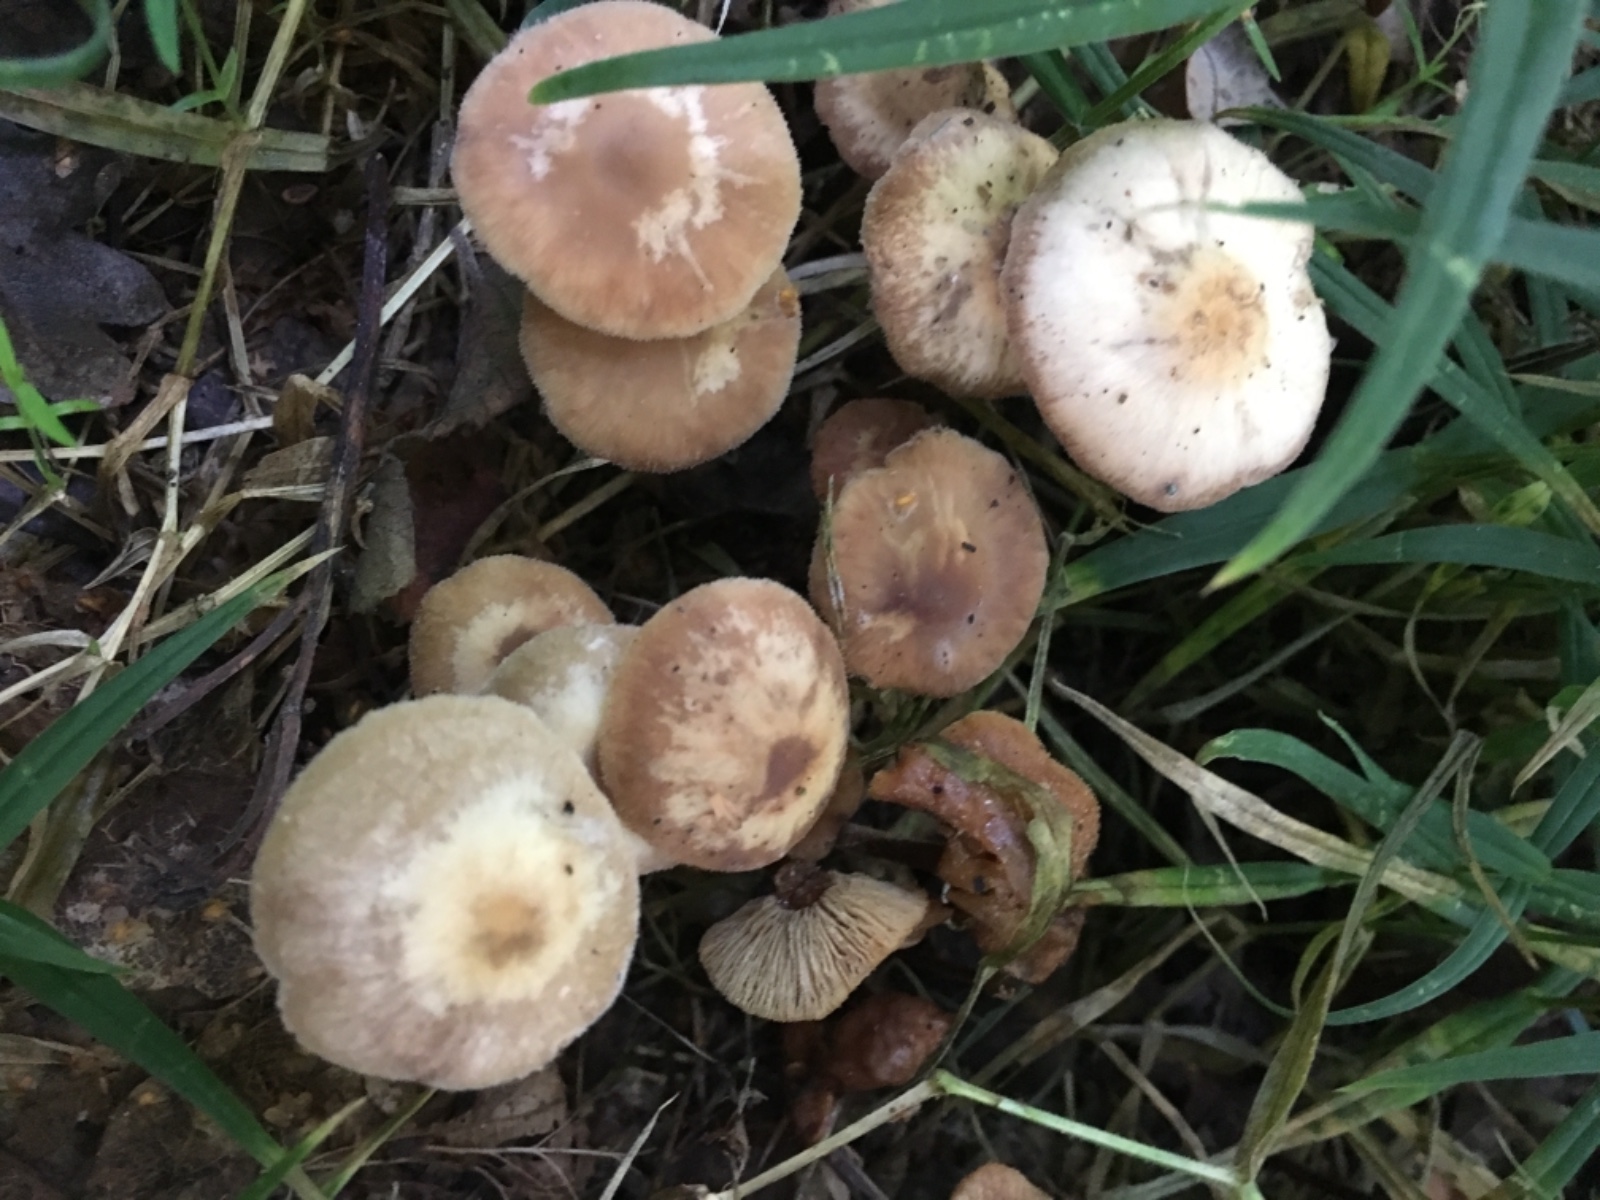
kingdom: Fungi
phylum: Basidiomycota
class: Agaricomycetes
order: Agaricales
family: Omphalotaceae
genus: Collybiopsis
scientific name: Collybiopsis confluens
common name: knippe-fladhat
